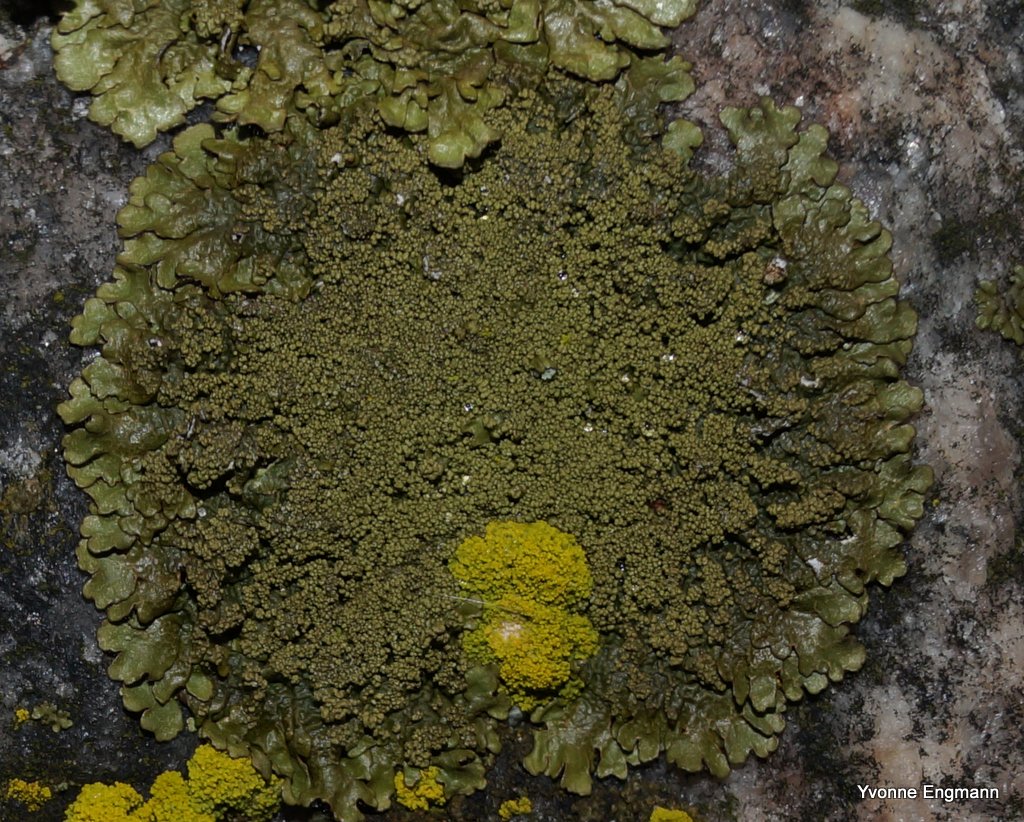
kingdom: Fungi
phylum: Ascomycota
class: Lecanoromycetes
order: Lecanorales
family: Parmeliaceae
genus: Xanthoparmelia
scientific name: Xanthoparmelia verruculifera
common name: småknoppet skållav
